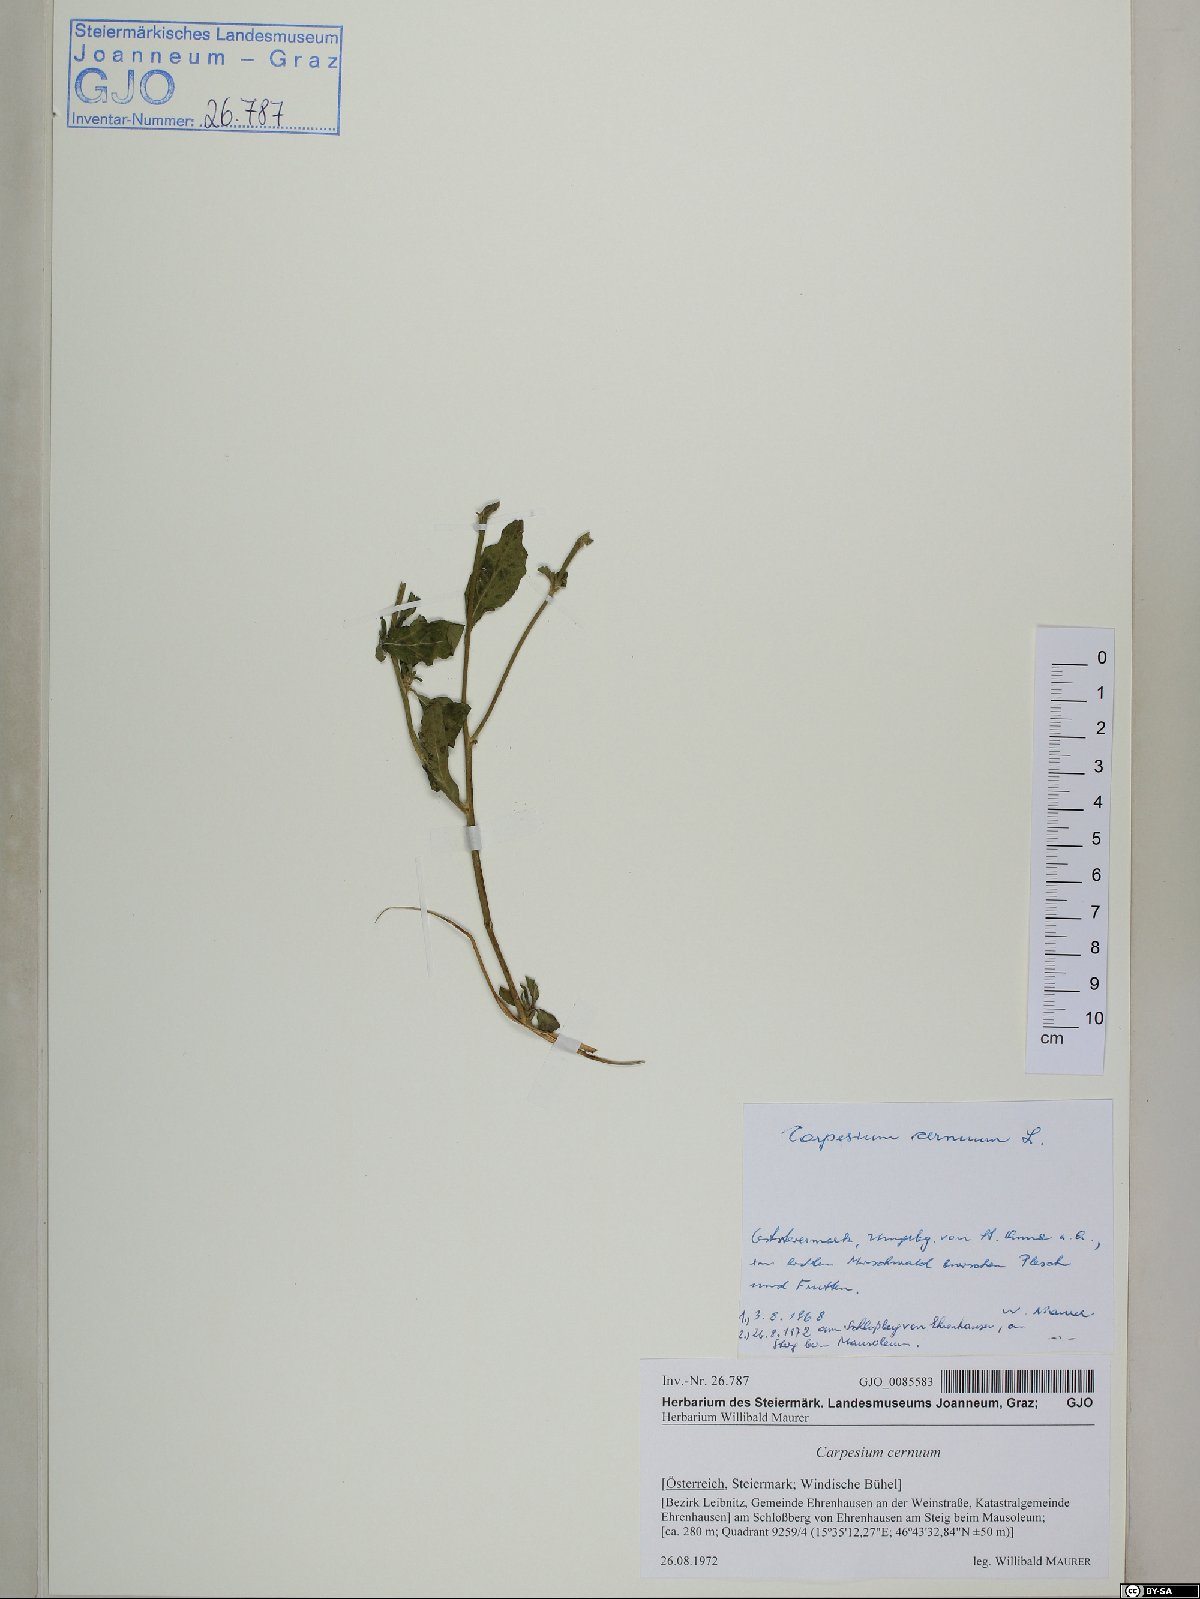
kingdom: Plantae
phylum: Tracheophyta
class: Magnoliopsida
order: Asterales
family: Asteraceae
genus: Carpesium
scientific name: Carpesium cernuum
